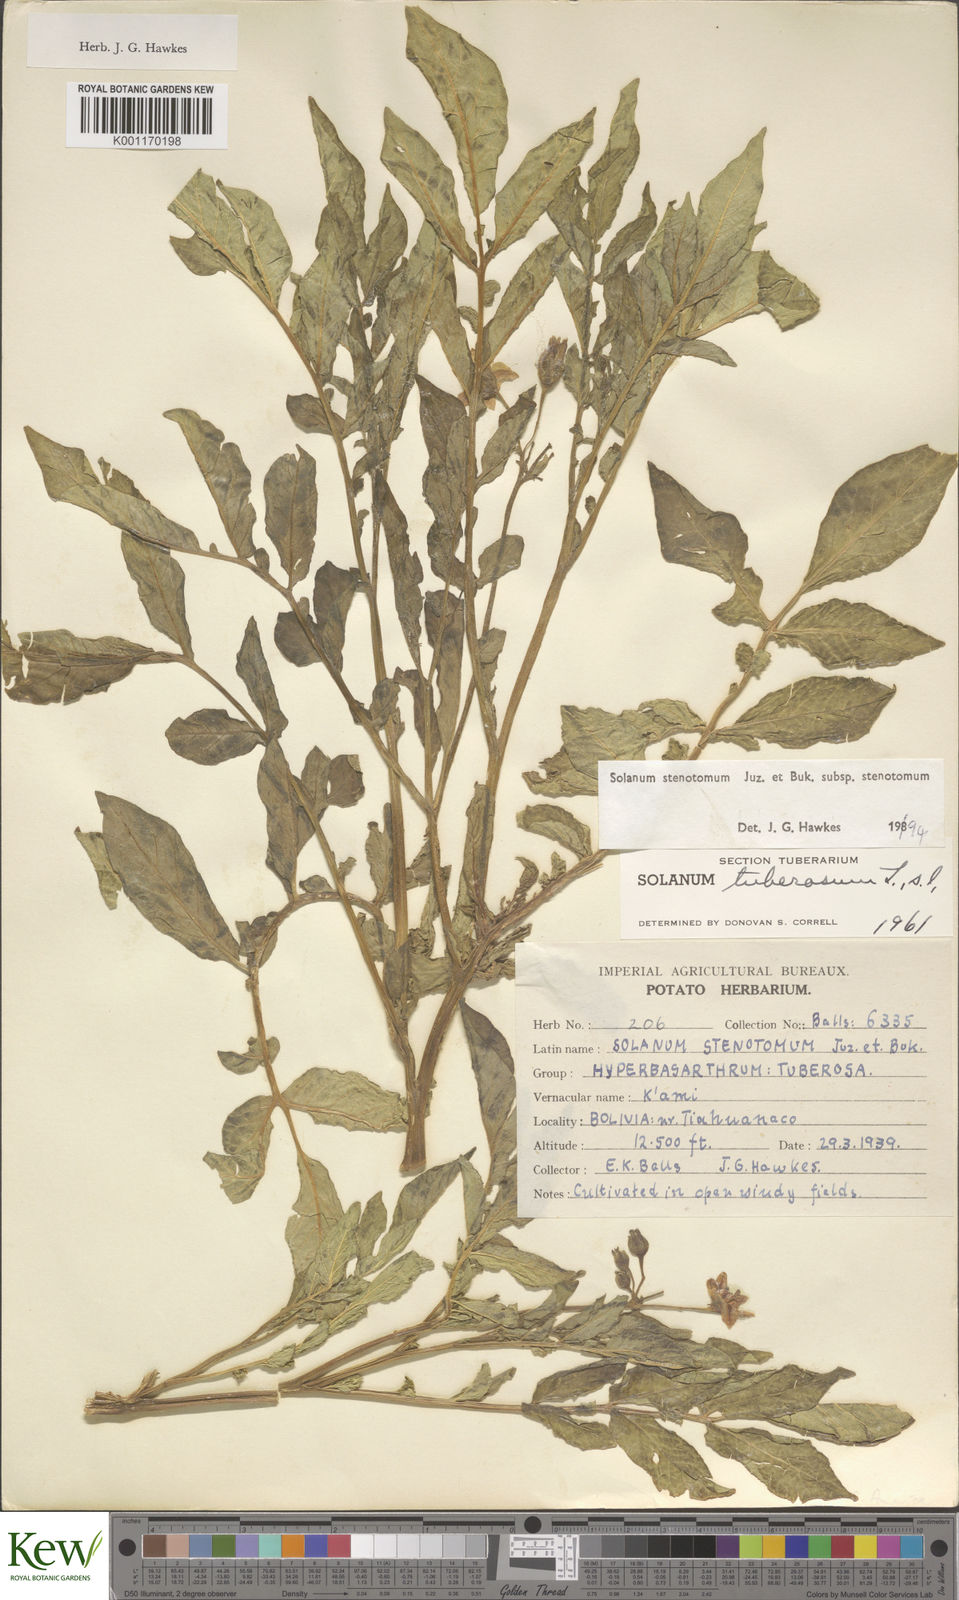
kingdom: Plantae
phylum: Tracheophyta
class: Magnoliopsida
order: Solanales
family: Solanaceae
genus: Solanum
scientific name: Solanum tuberosum
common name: Potato
